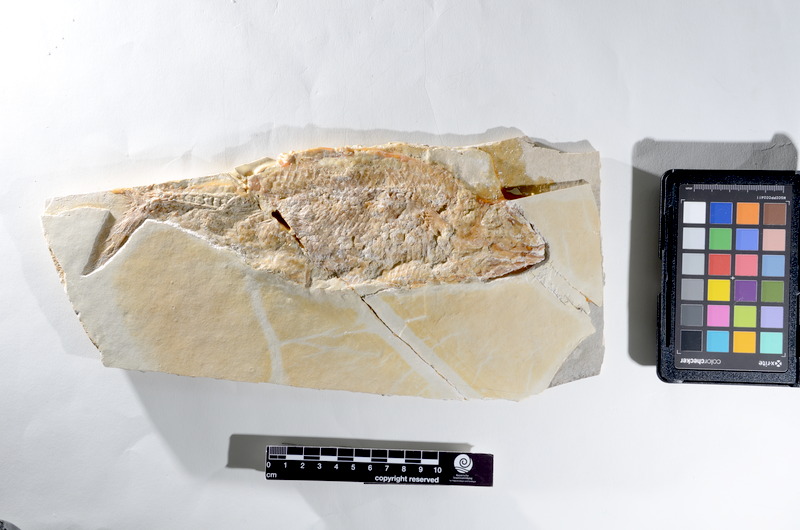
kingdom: Animalia
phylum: Chordata
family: Pholidophoridae
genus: Pholidophorus
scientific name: Pholidophorus
